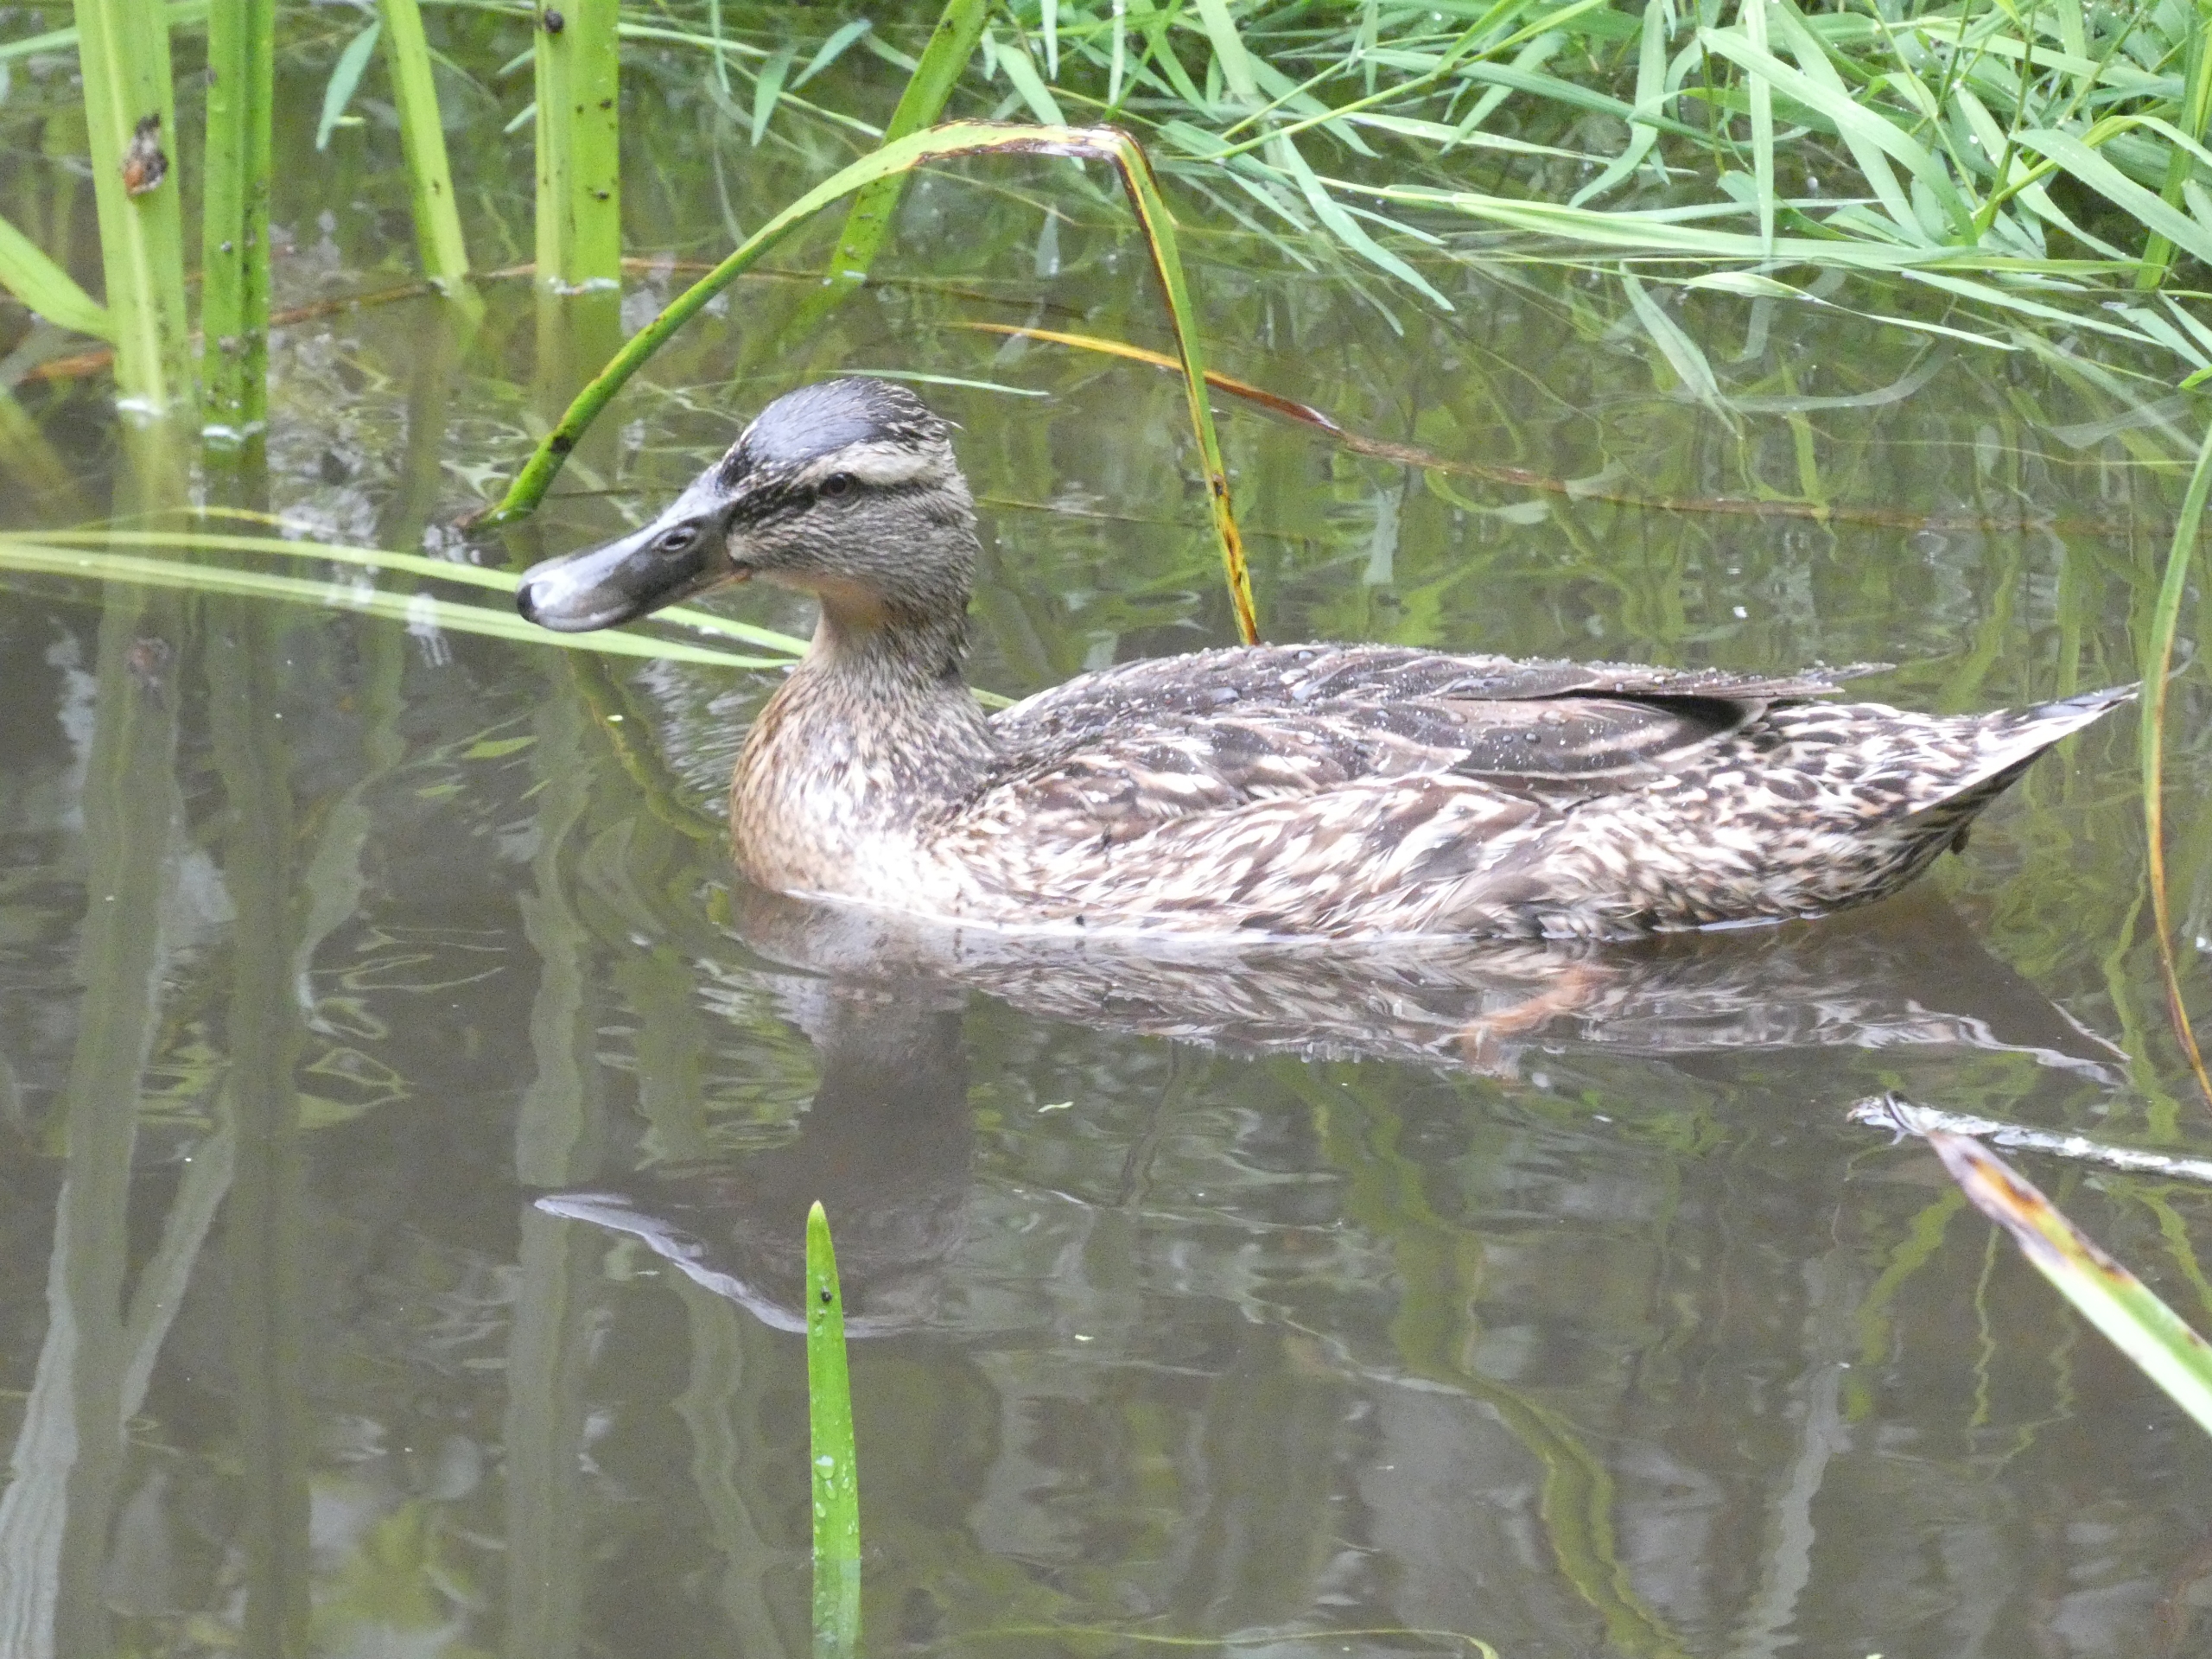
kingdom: Animalia
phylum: Chordata
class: Aves
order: Anseriformes
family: Anatidae
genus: Anas
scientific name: Anas platyrhynchos
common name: Gråand
